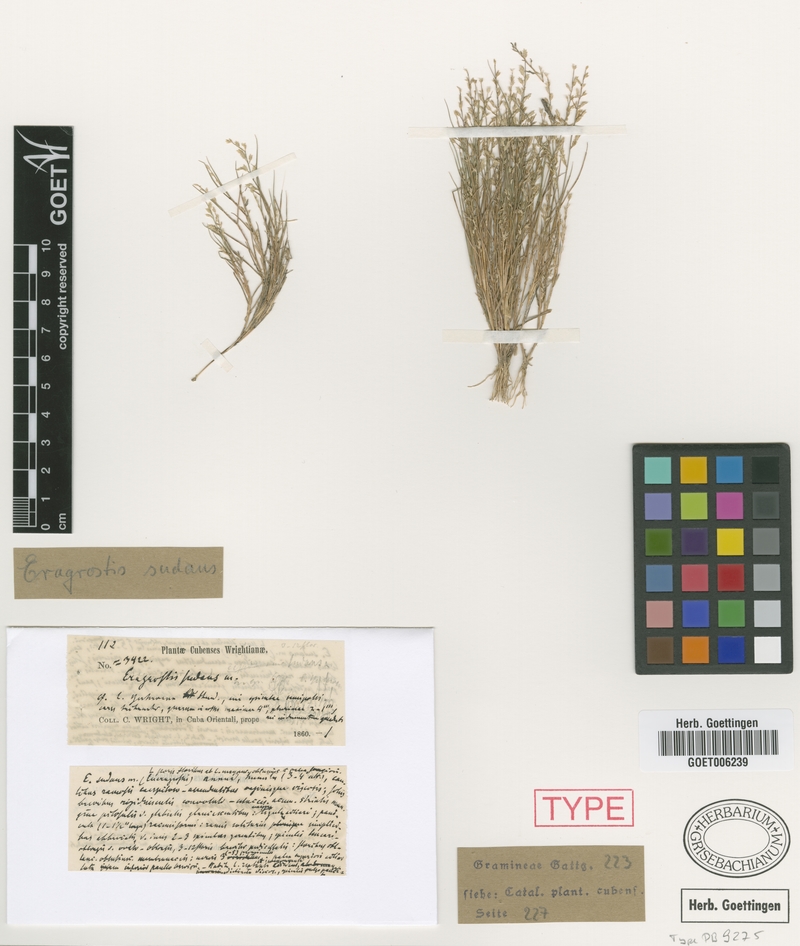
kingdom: Plantae
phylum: Tracheophyta
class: Liliopsida
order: Poales
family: Poaceae
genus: Eragrostis
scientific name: Eragrostis glutinosa
